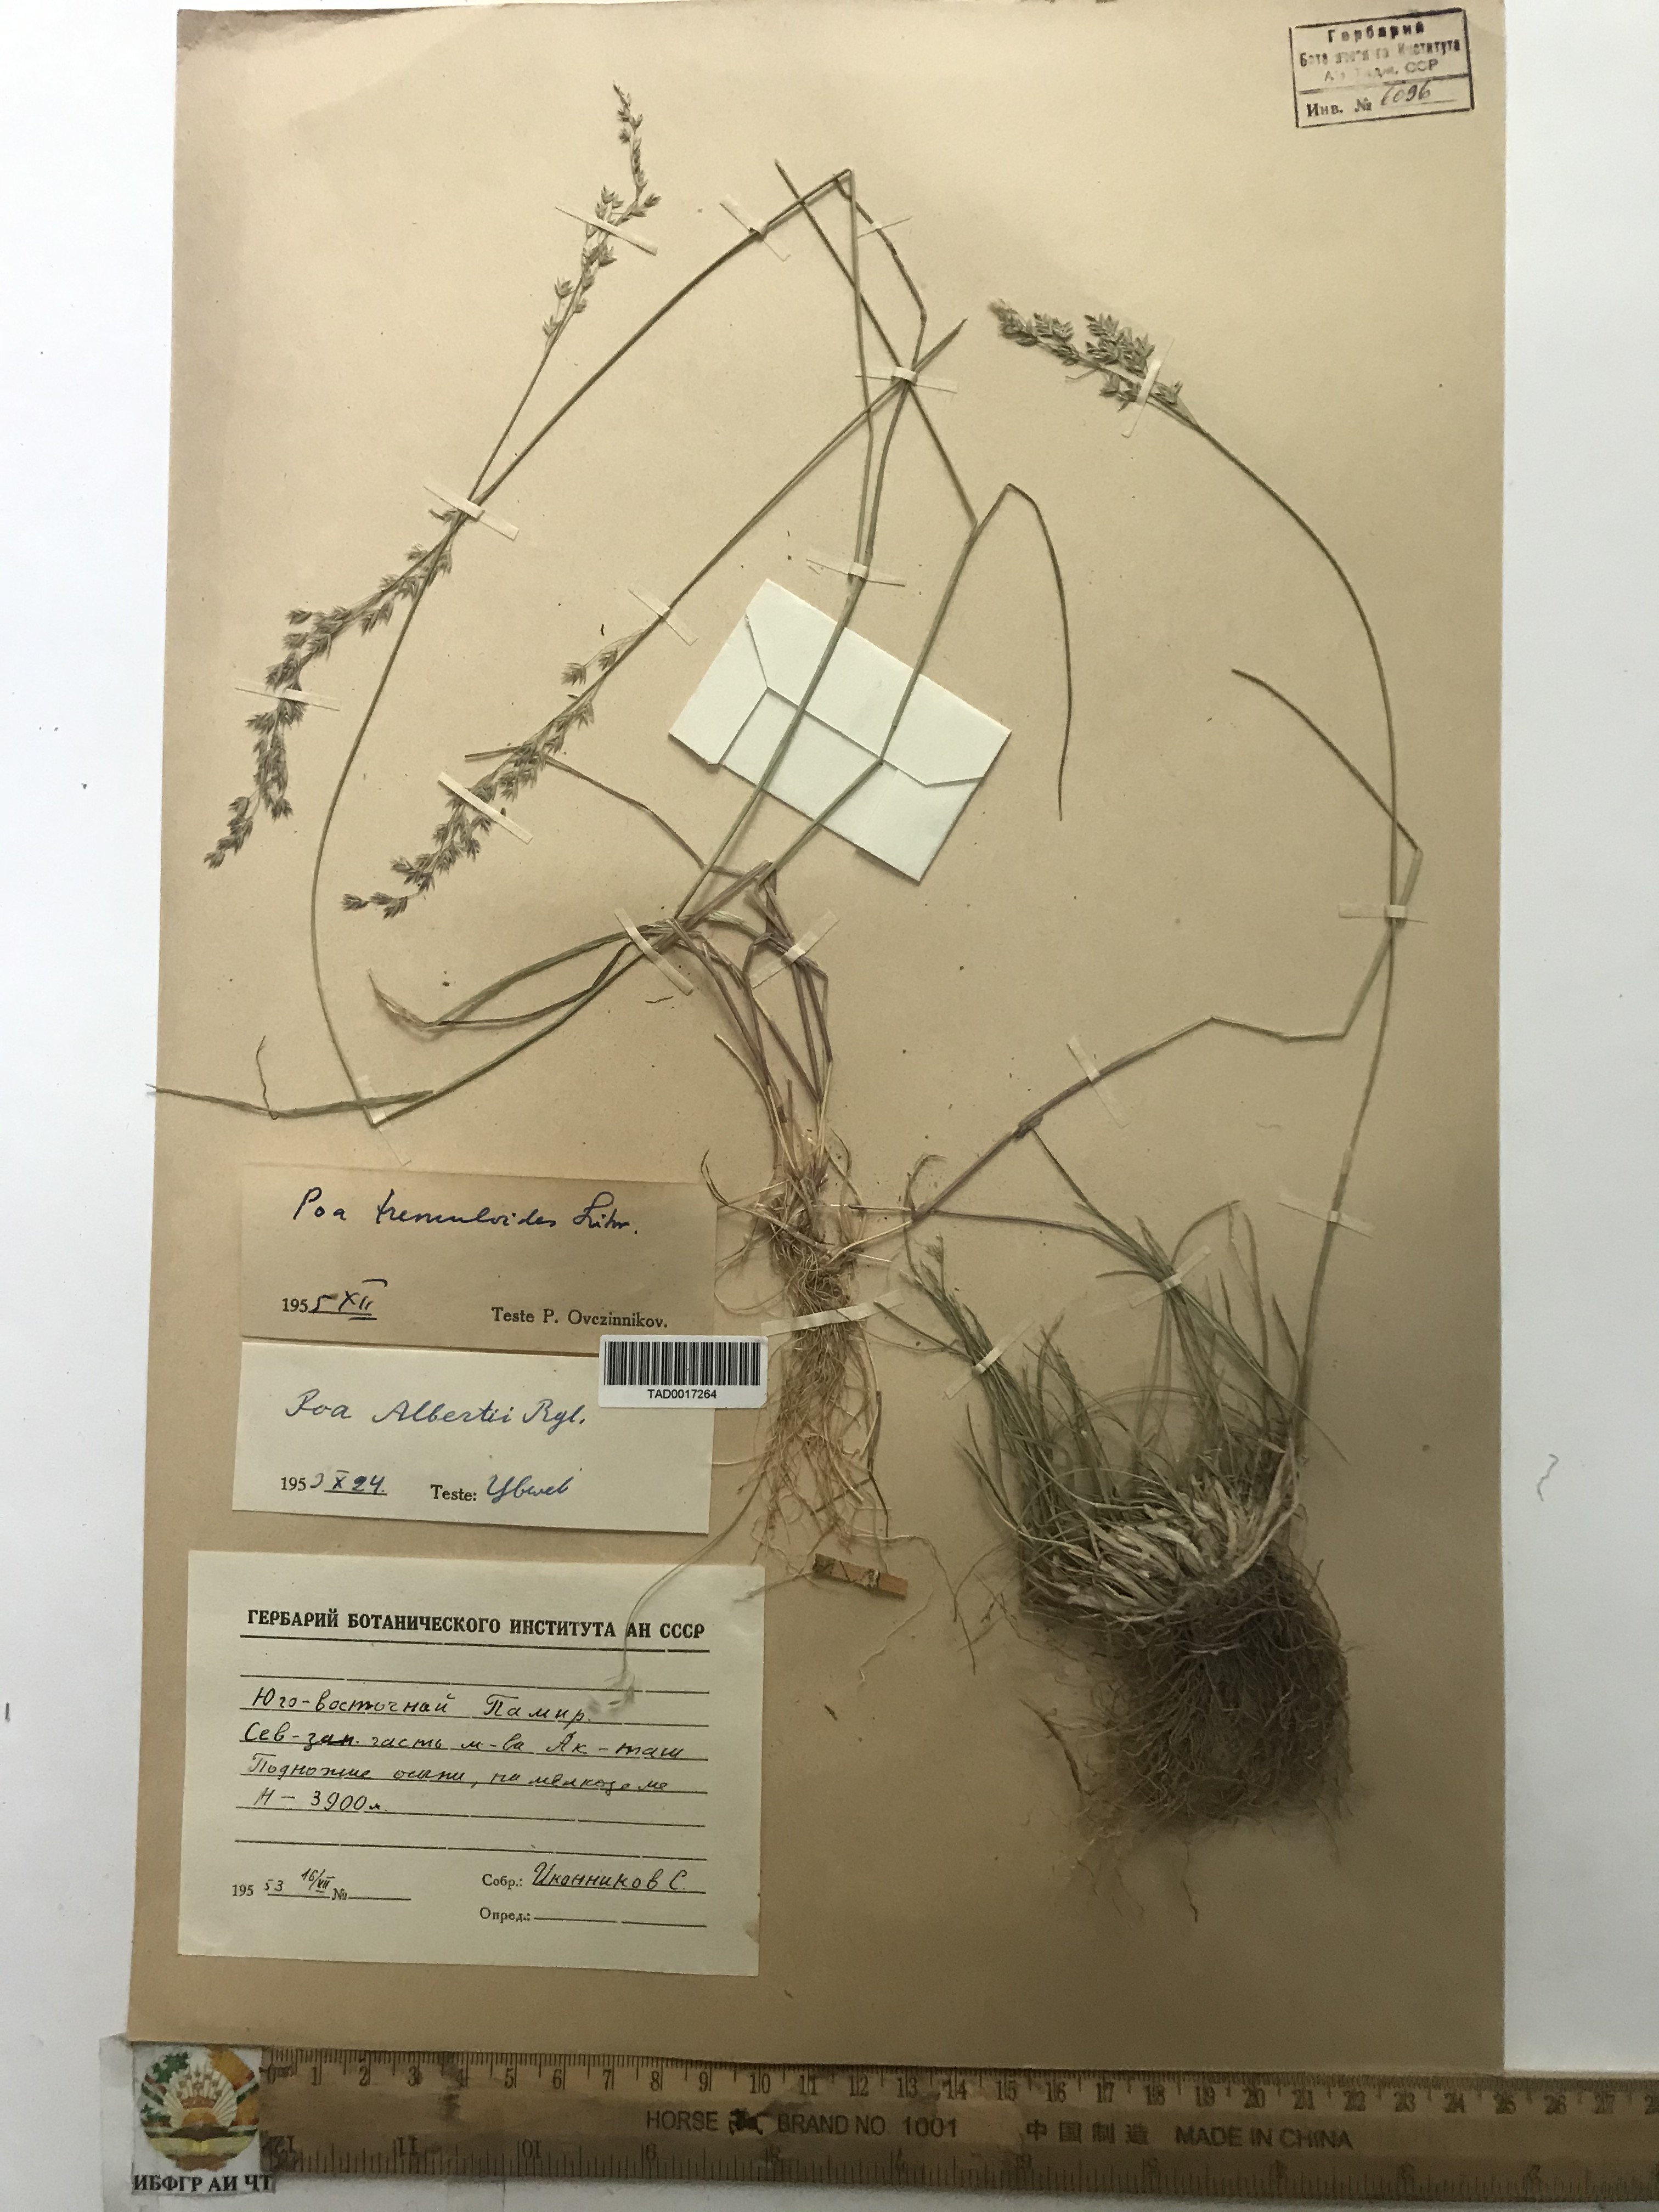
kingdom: Plantae
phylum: Tracheophyta
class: Liliopsida
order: Poales
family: Poaceae
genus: Poa
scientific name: Poa alberti
